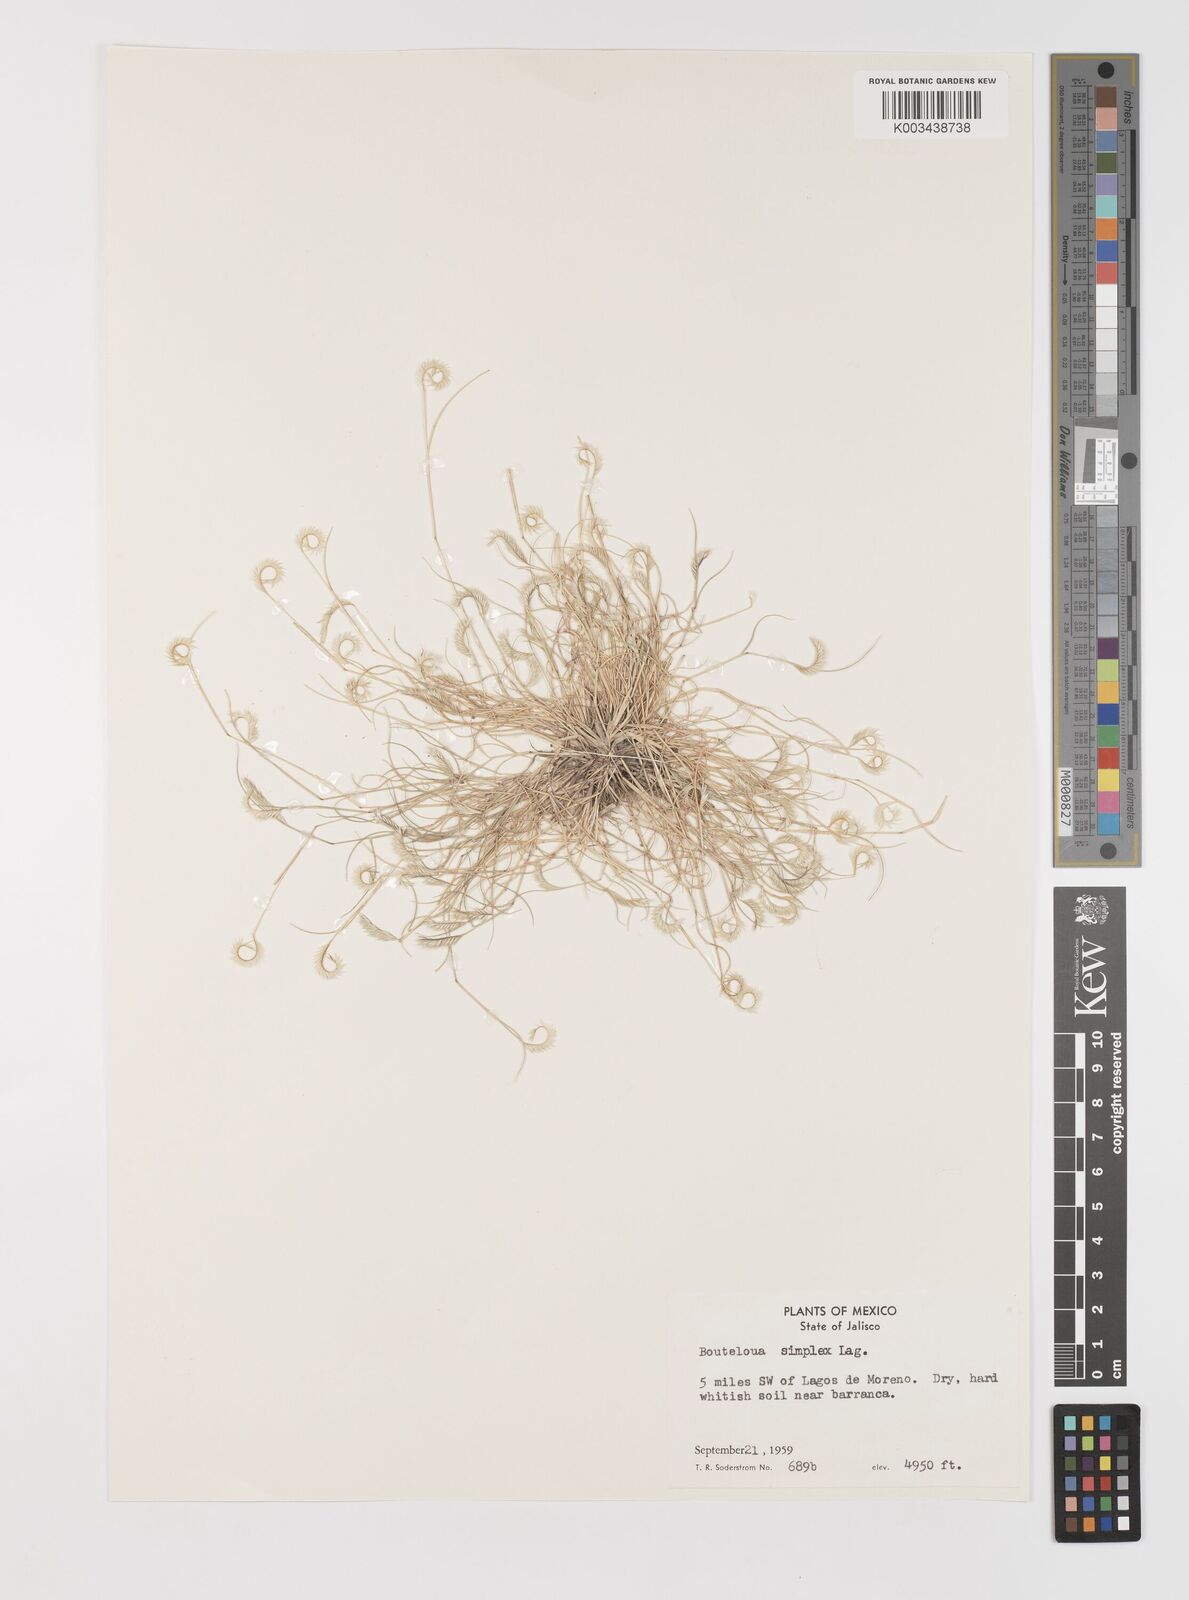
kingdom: Plantae
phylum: Tracheophyta
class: Liliopsida
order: Poales
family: Poaceae
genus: Bouteloua
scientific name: Bouteloua simplex
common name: Mat grama
